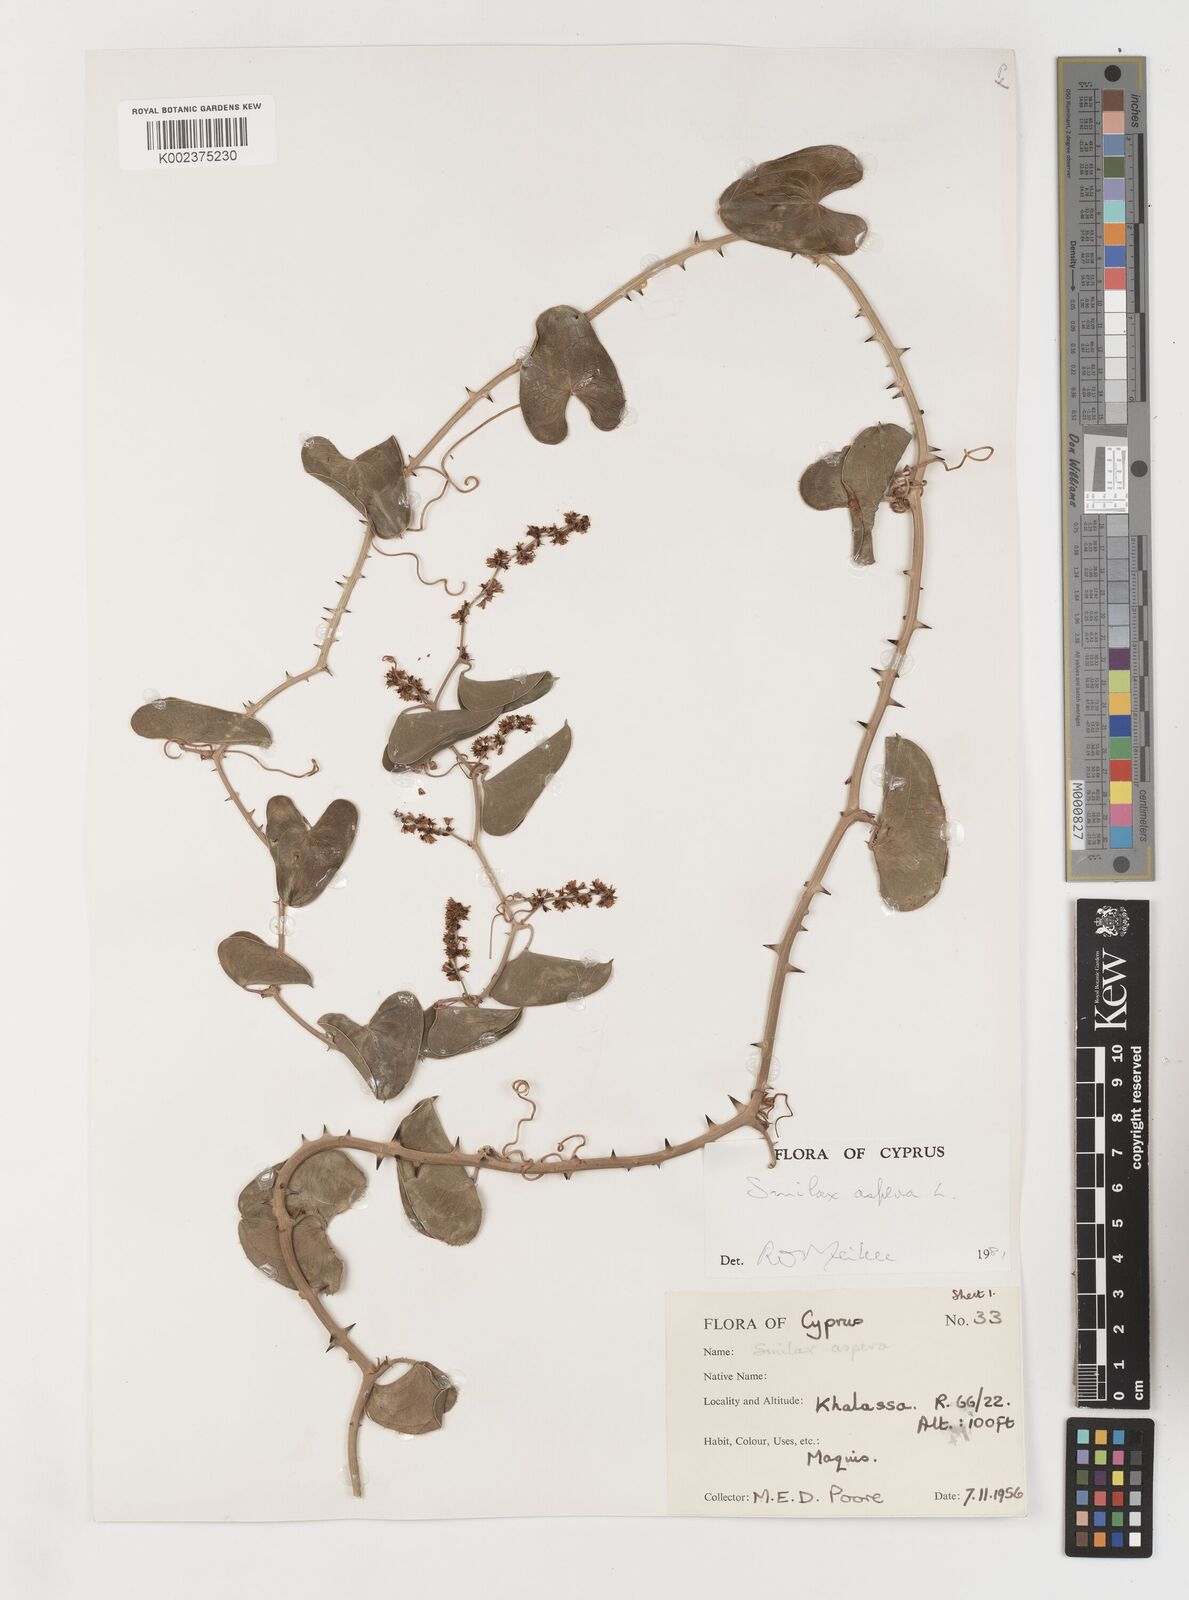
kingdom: Plantae
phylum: Tracheophyta
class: Liliopsida
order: Liliales
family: Smilacaceae
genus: Smilax
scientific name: Smilax aspera
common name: Common smilax
